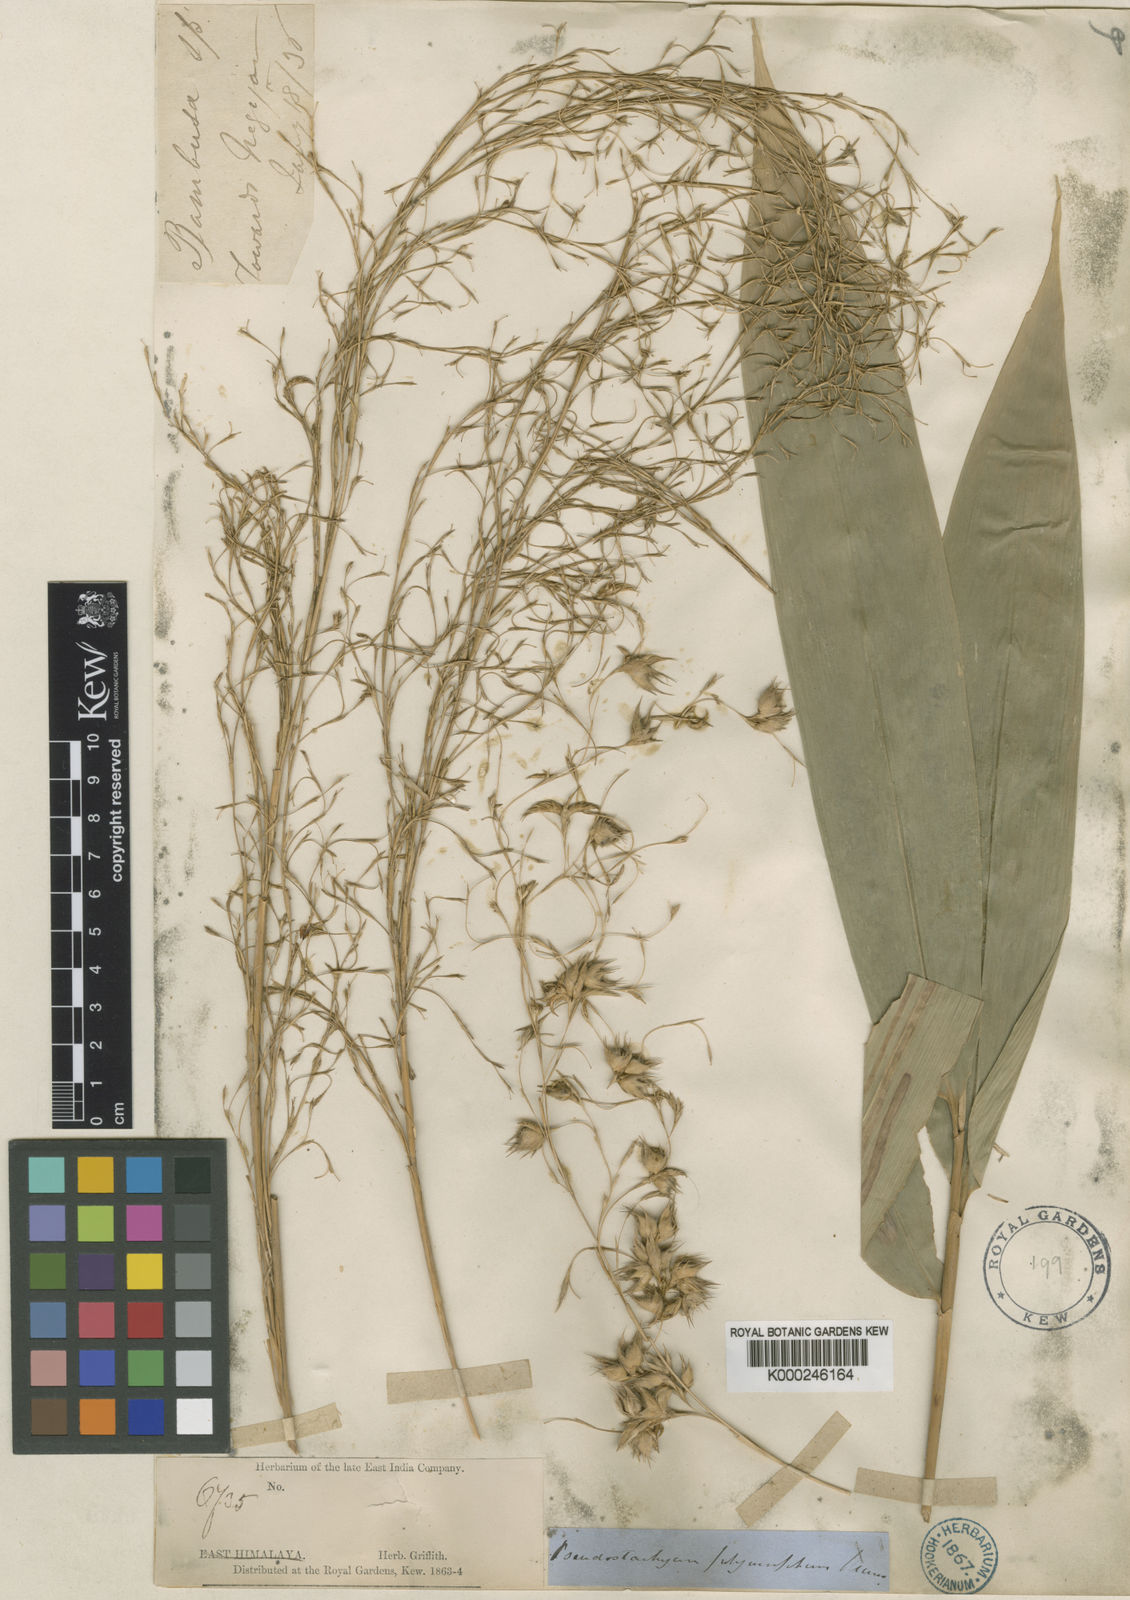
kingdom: Plantae
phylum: Tracheophyta
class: Liliopsida
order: Poales
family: Poaceae
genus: Pseudostachyum
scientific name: Pseudostachyum polymorphum
